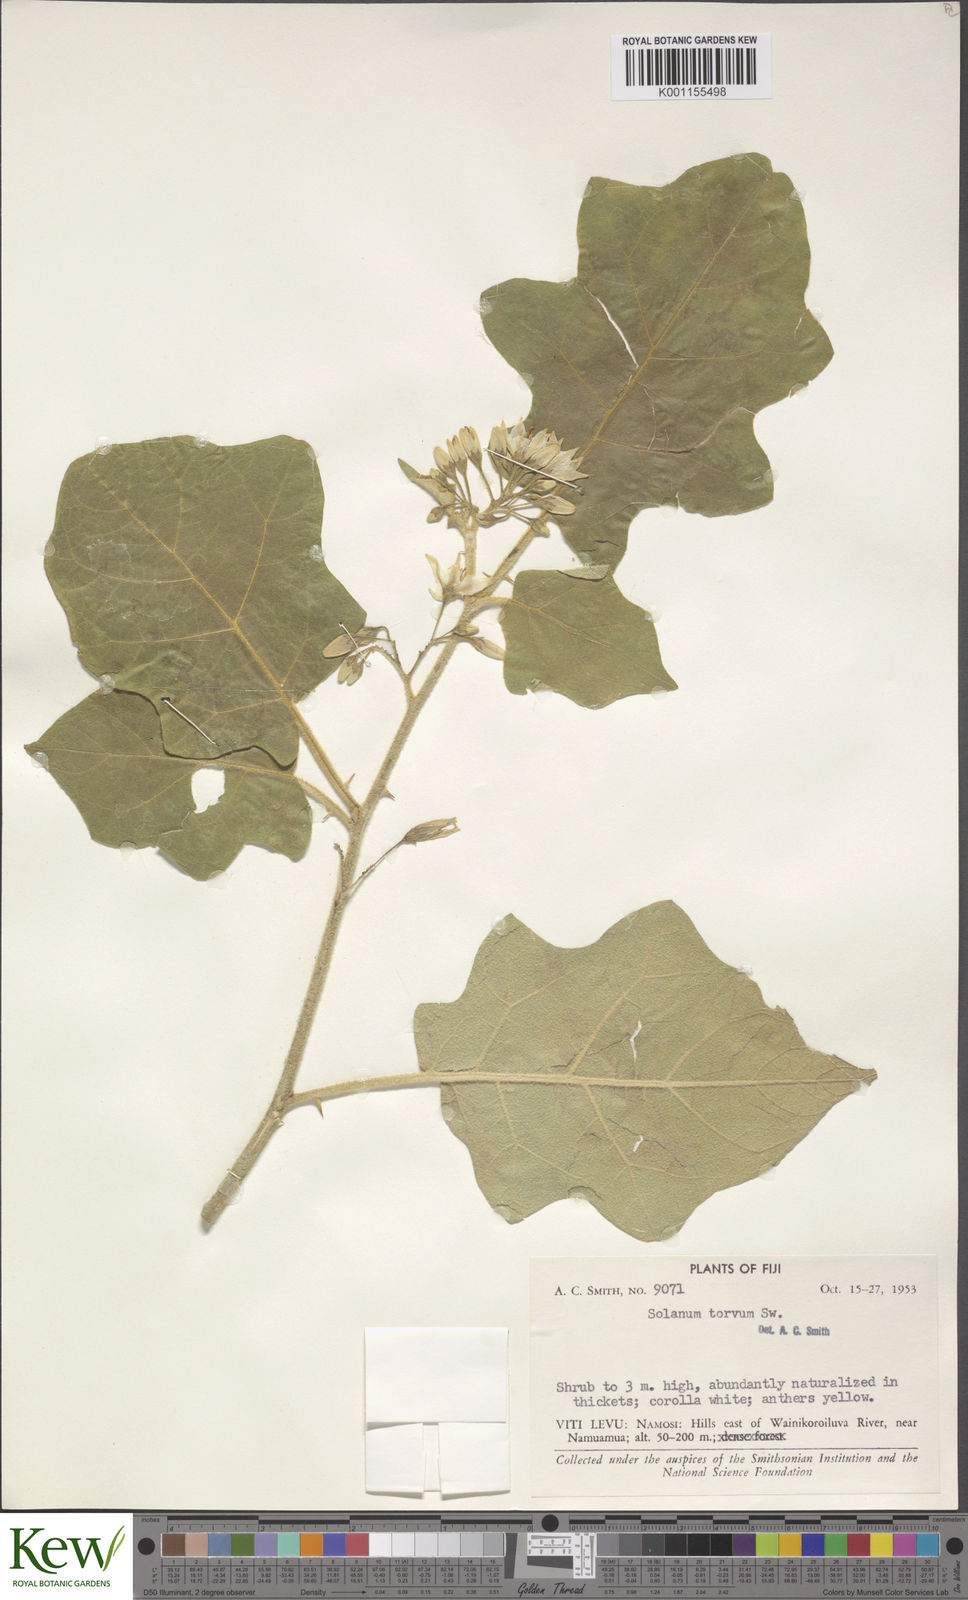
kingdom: Plantae
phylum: Tracheophyta
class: Magnoliopsida
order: Solanales
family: Solanaceae
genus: Solanum
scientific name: Solanum torvum
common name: Turkey berry
